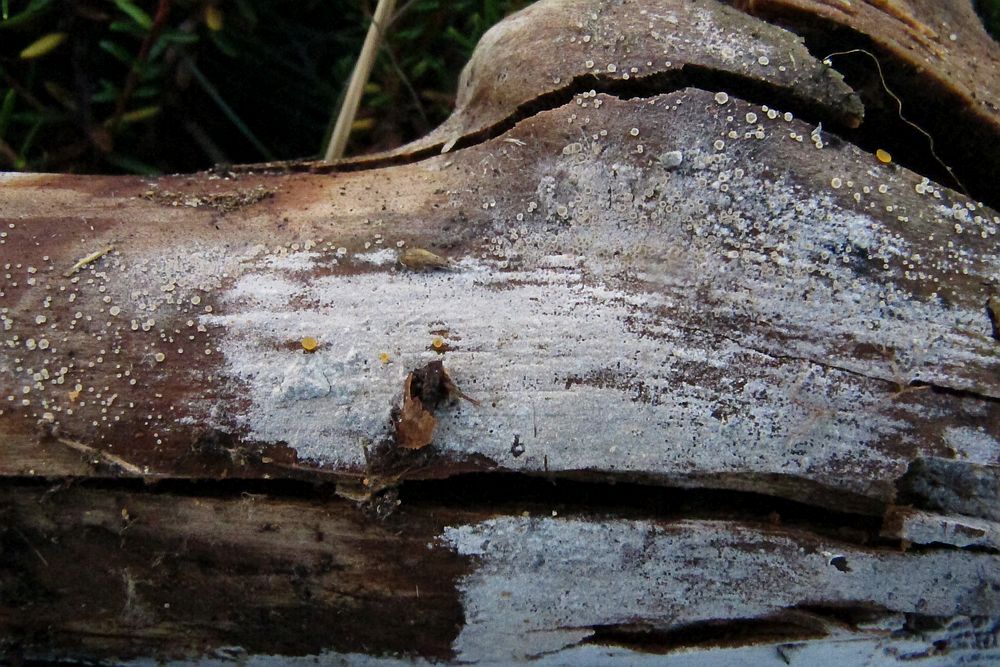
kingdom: Fungi
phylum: Ascomycota
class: Leotiomycetes
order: Helotiales
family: Hyaloscyphaceae
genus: Hyaloscypha
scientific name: Hyaloscypha
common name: klarskive
